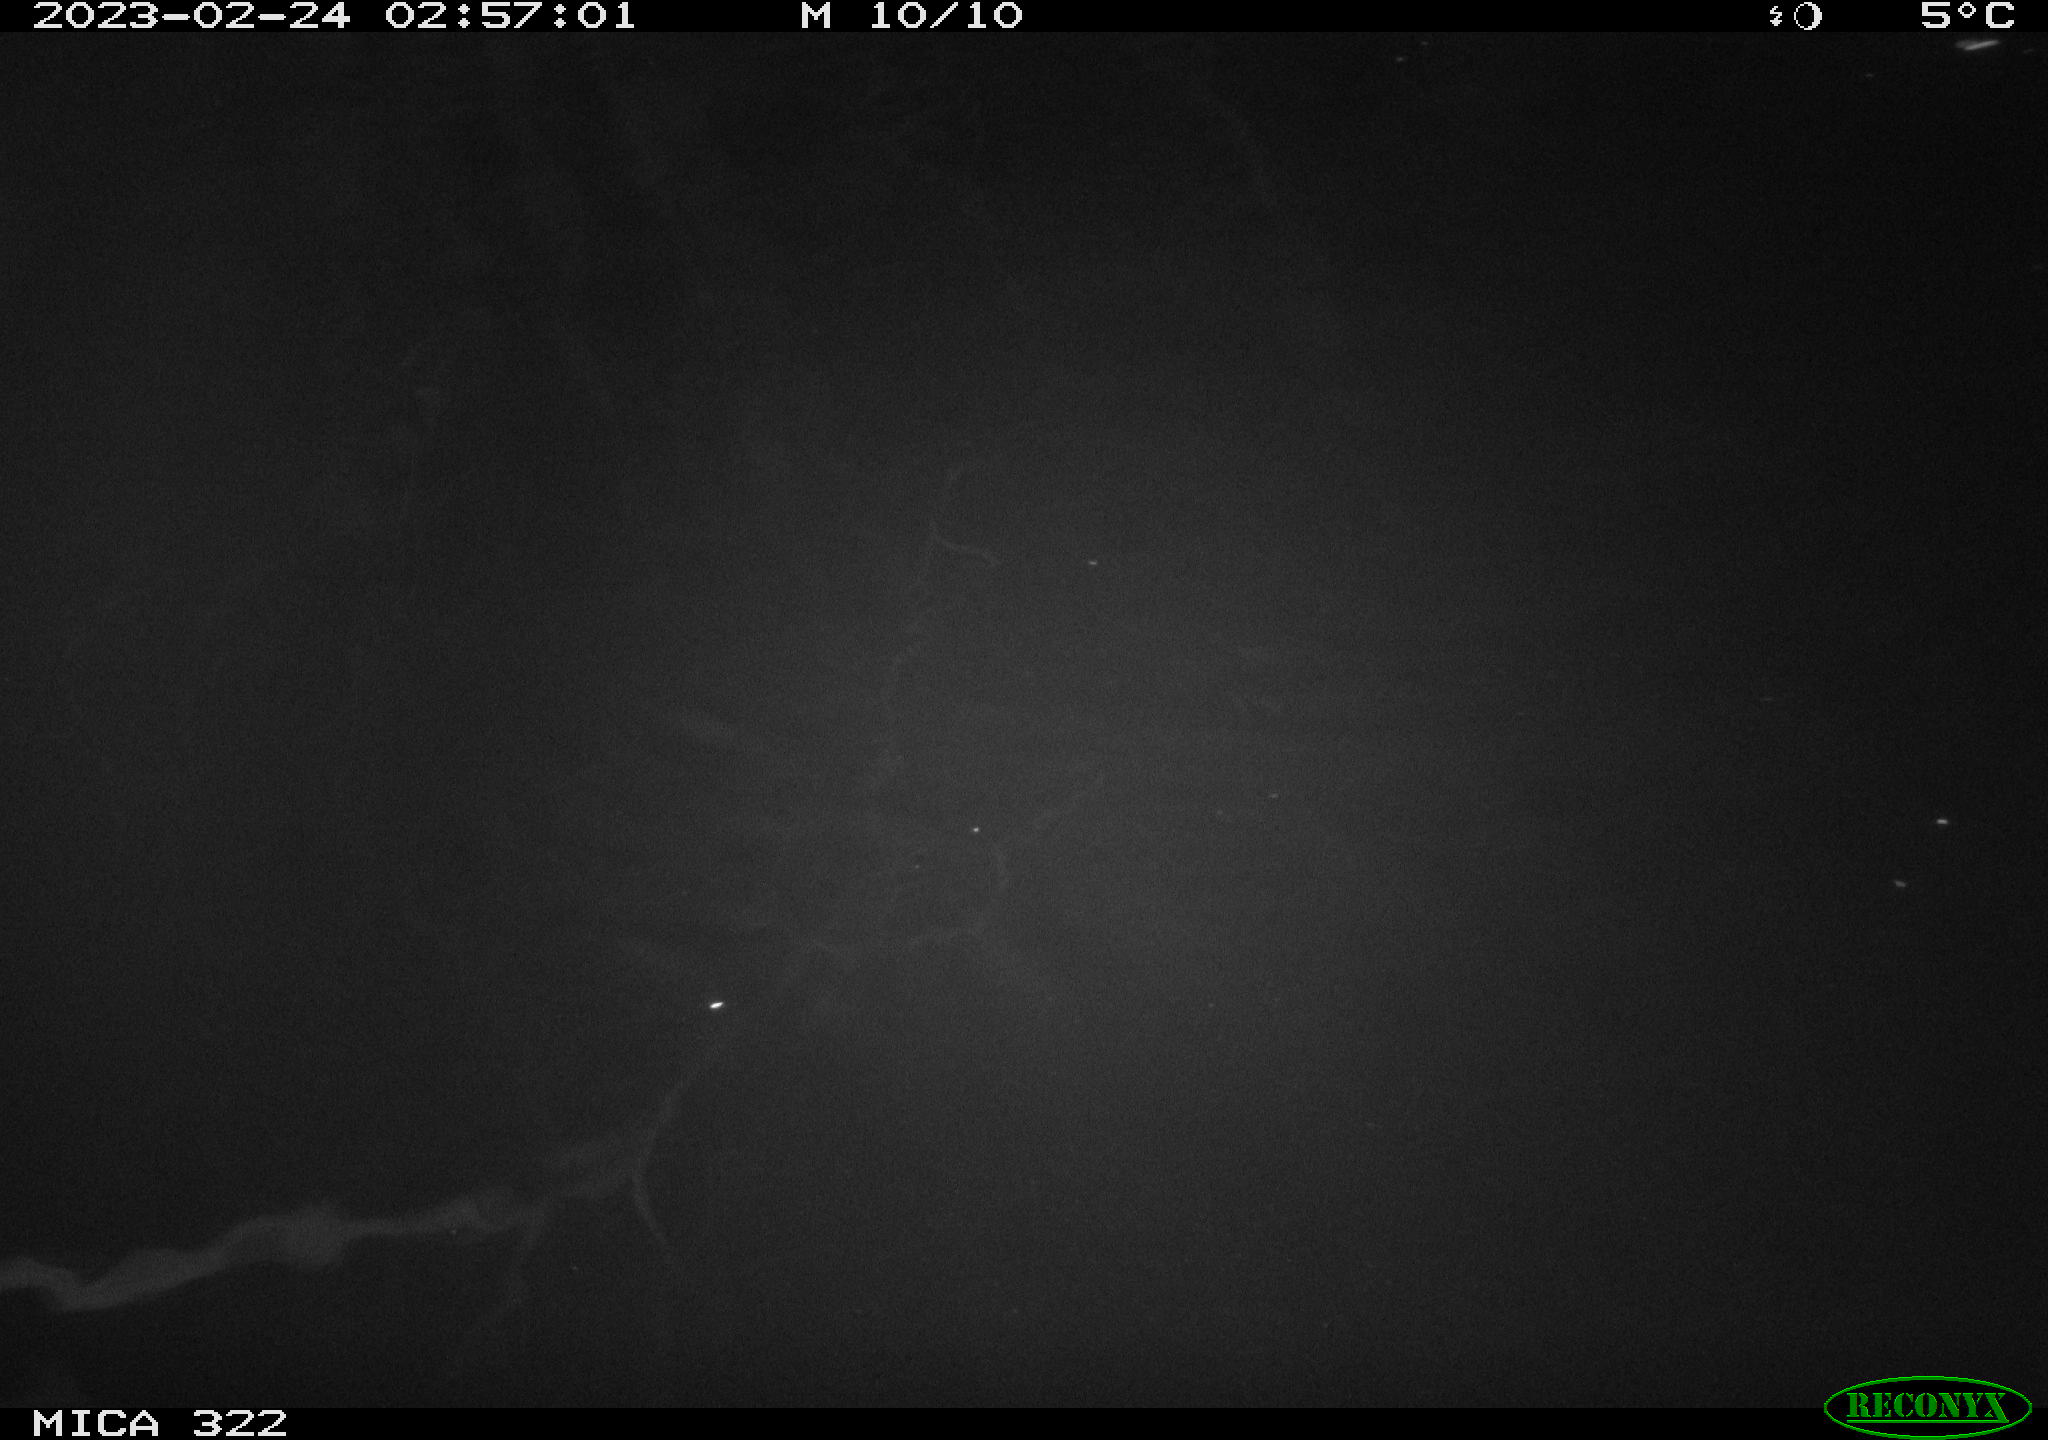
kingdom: Animalia
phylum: Chordata
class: Aves
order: Anseriformes
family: Anatidae
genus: Anas
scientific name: Anas
